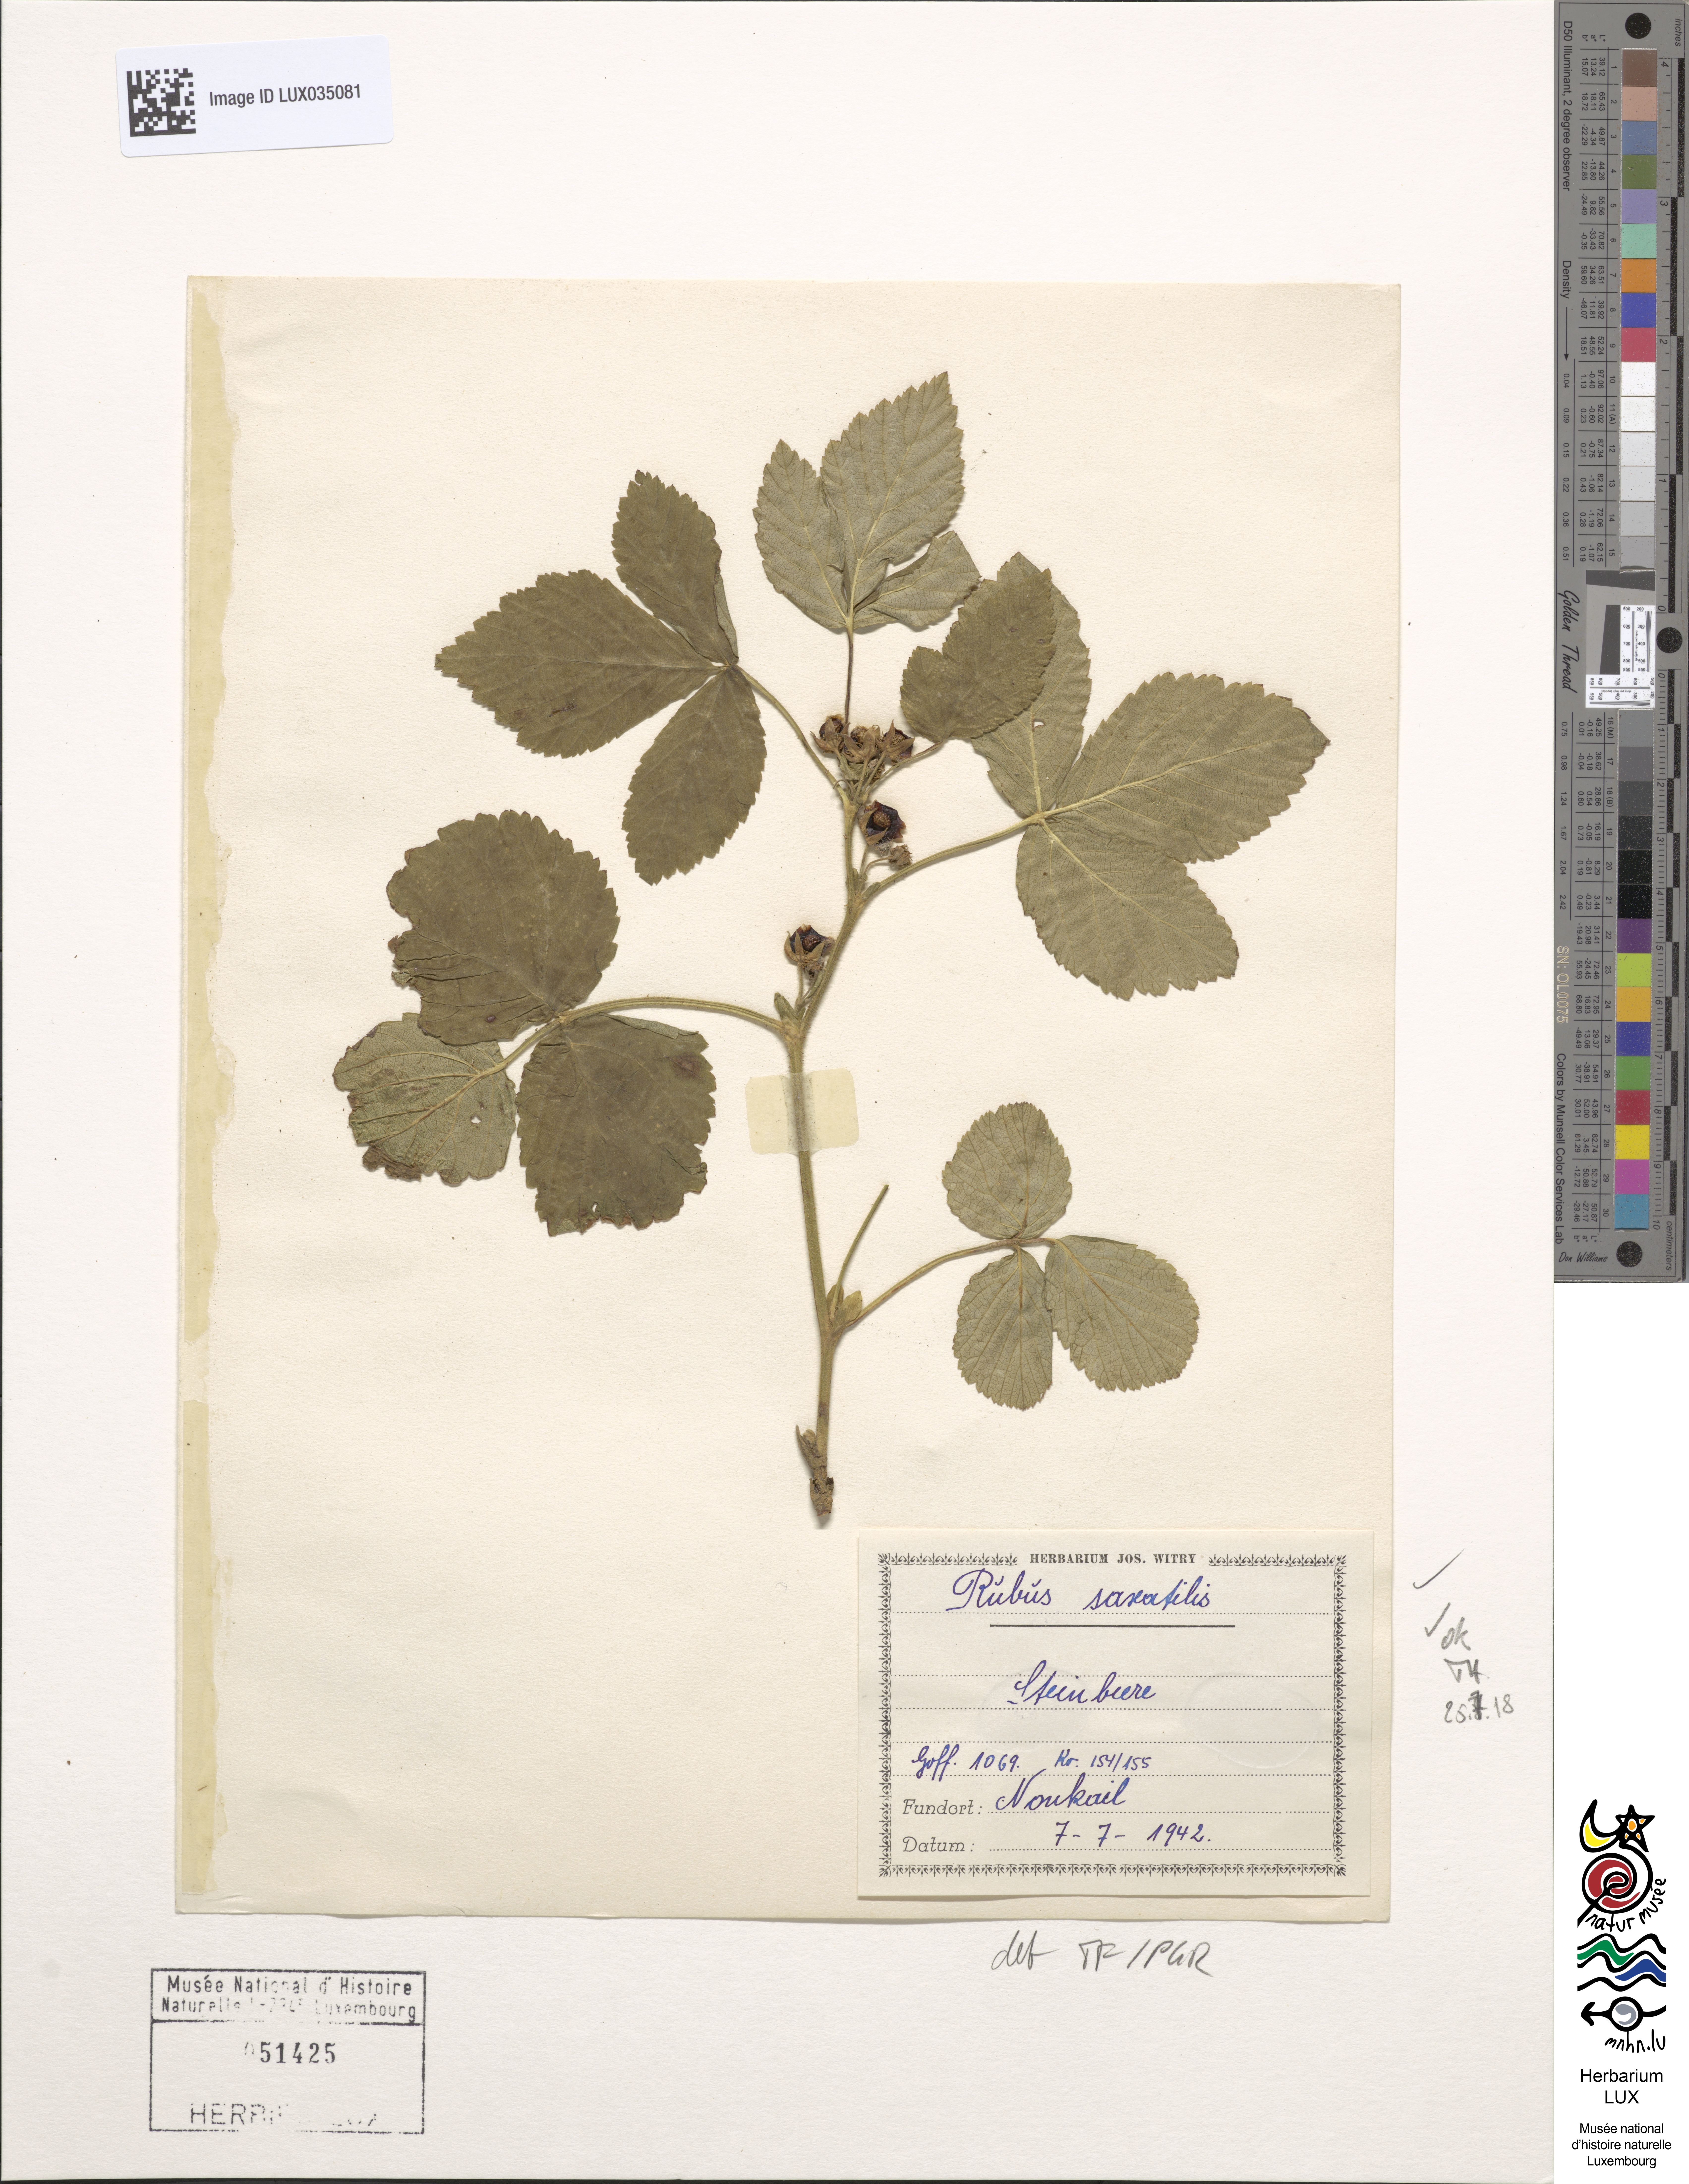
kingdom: Plantae
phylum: Tracheophyta
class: Magnoliopsida
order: Rosales
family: Rosaceae
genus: Rubus
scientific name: Rubus saxatilis
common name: Stone bramble
